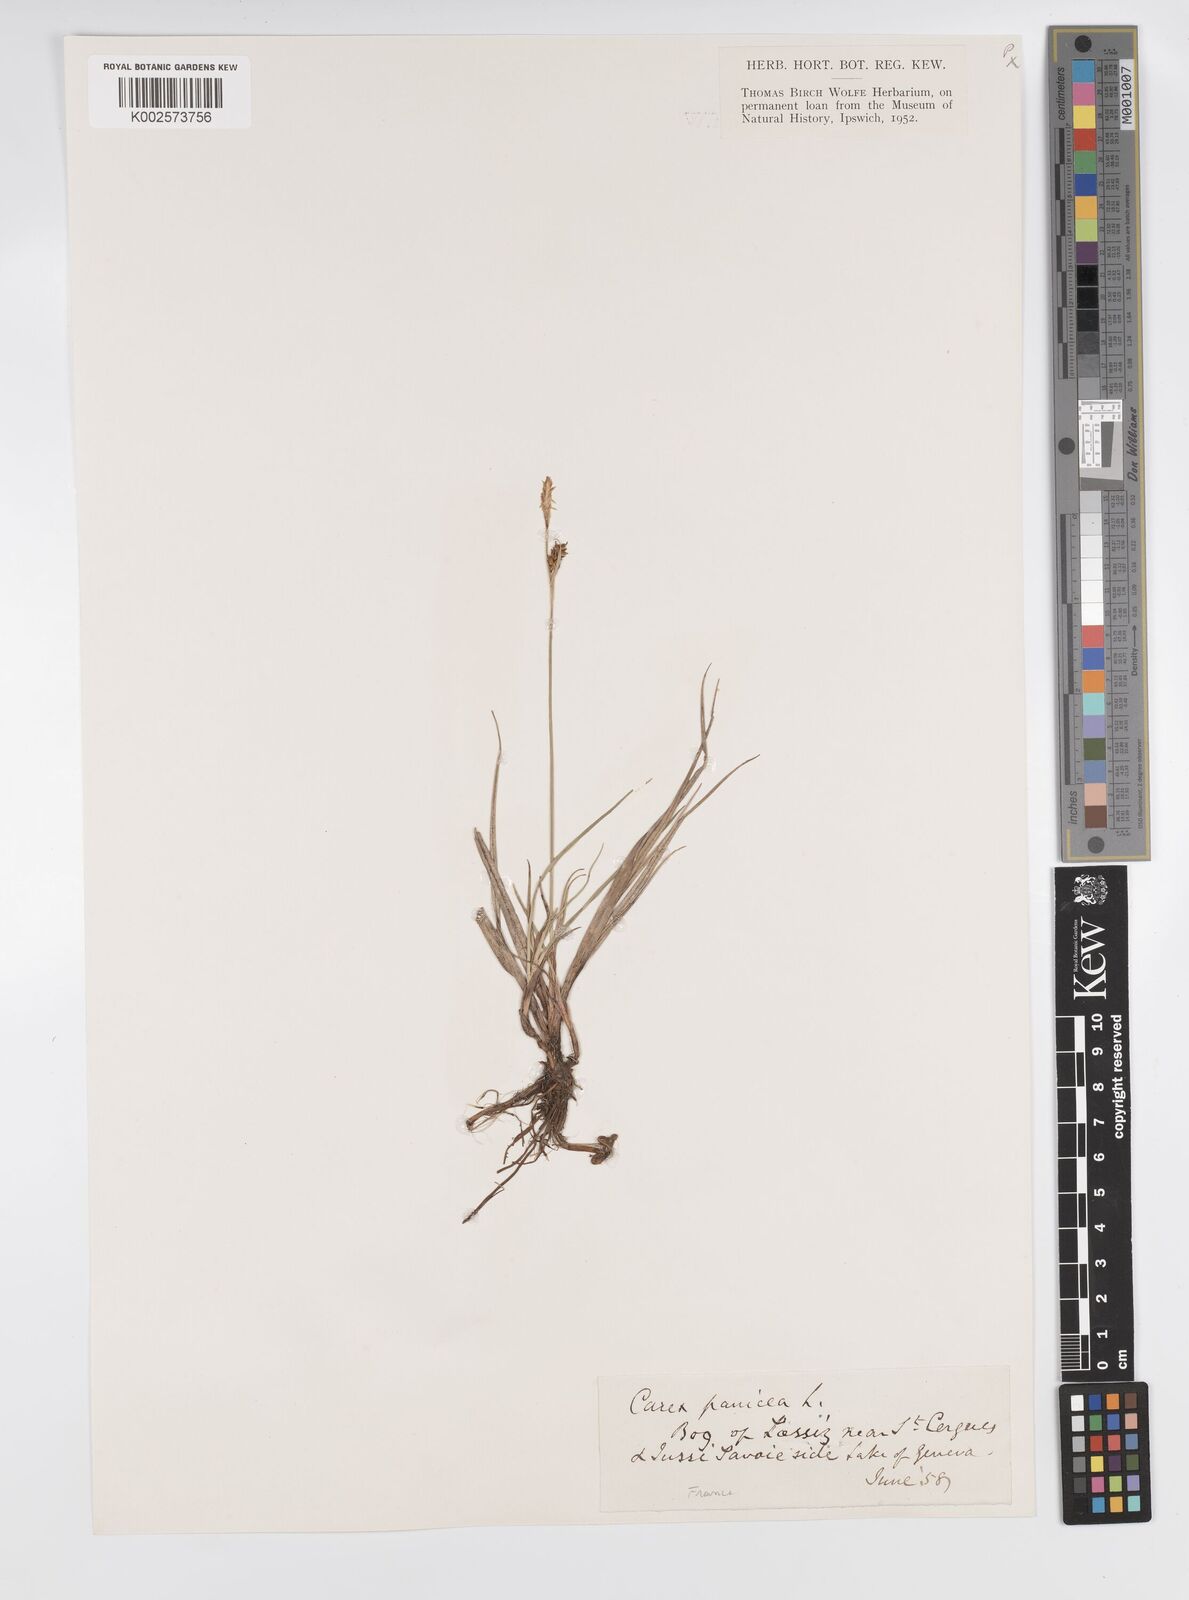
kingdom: Plantae
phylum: Tracheophyta
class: Liliopsida
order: Poales
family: Cyperaceae
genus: Carex
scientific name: Carex panicea
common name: Carnation sedge
